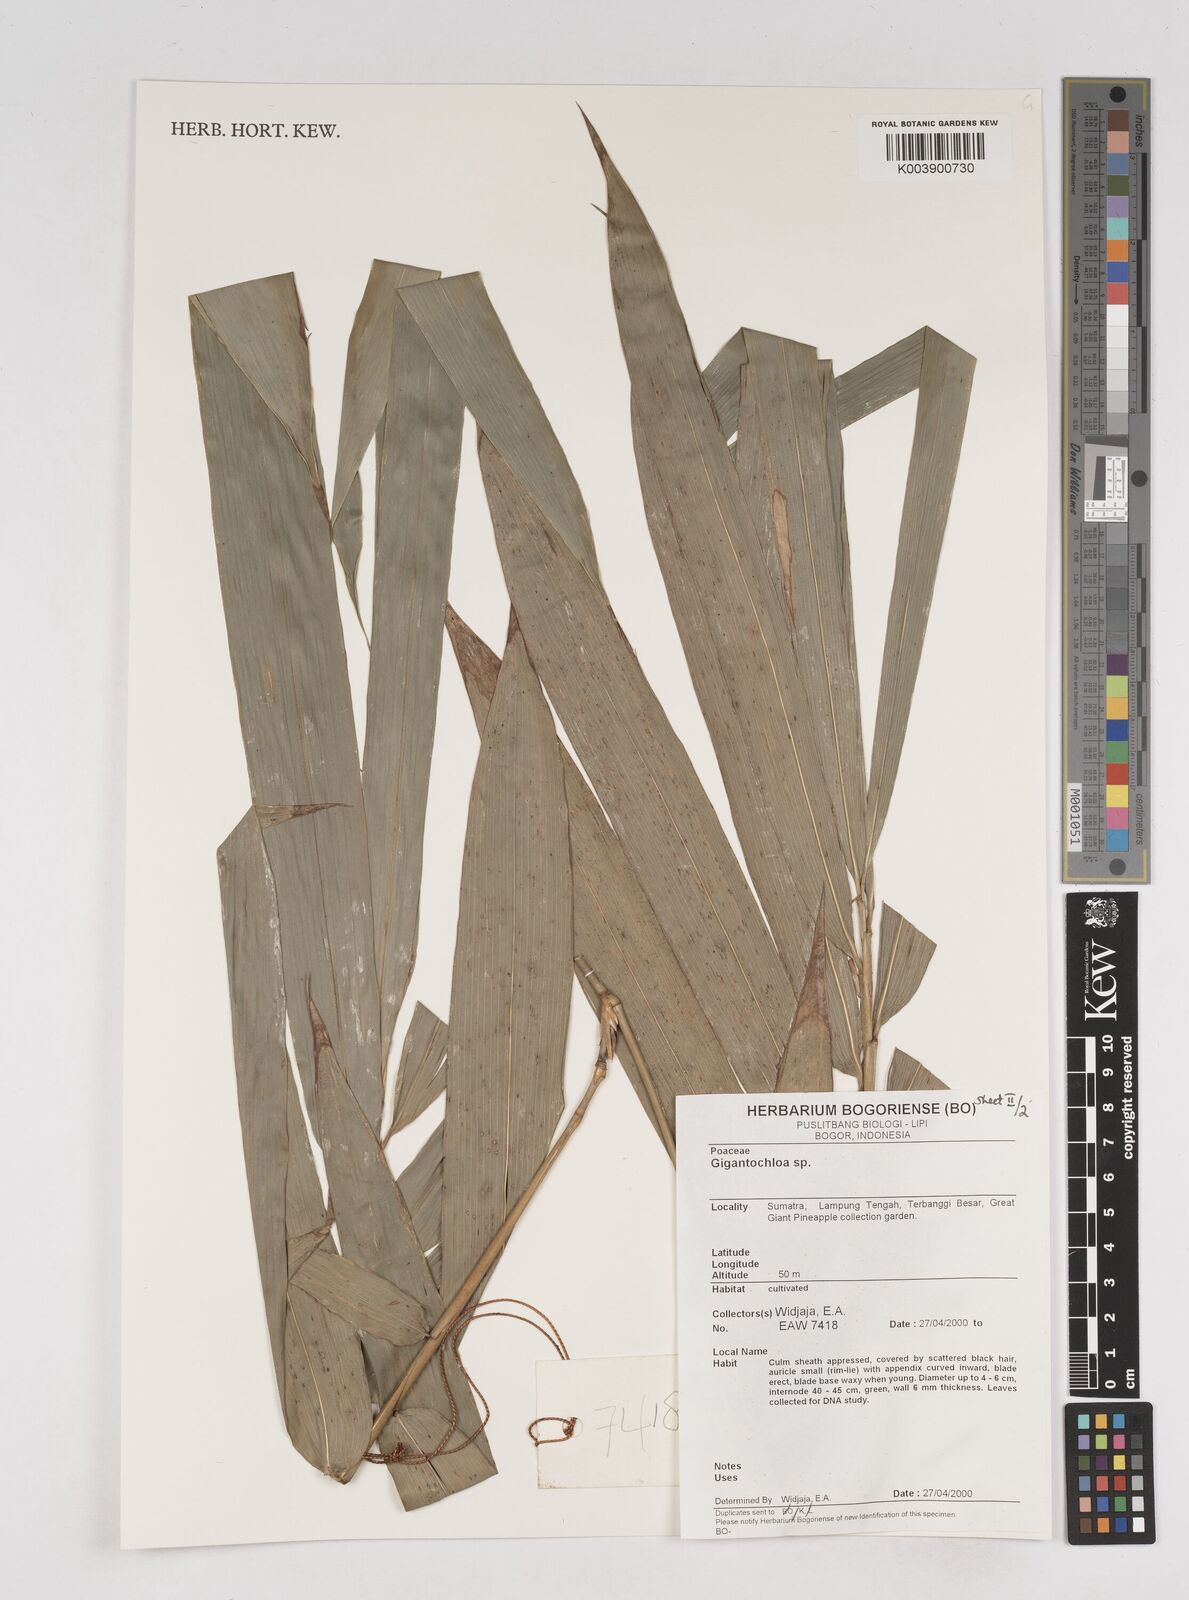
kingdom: Plantae
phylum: Tracheophyta
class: Liliopsida
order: Poales
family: Poaceae
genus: Gigantochloa
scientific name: Gigantochloa
